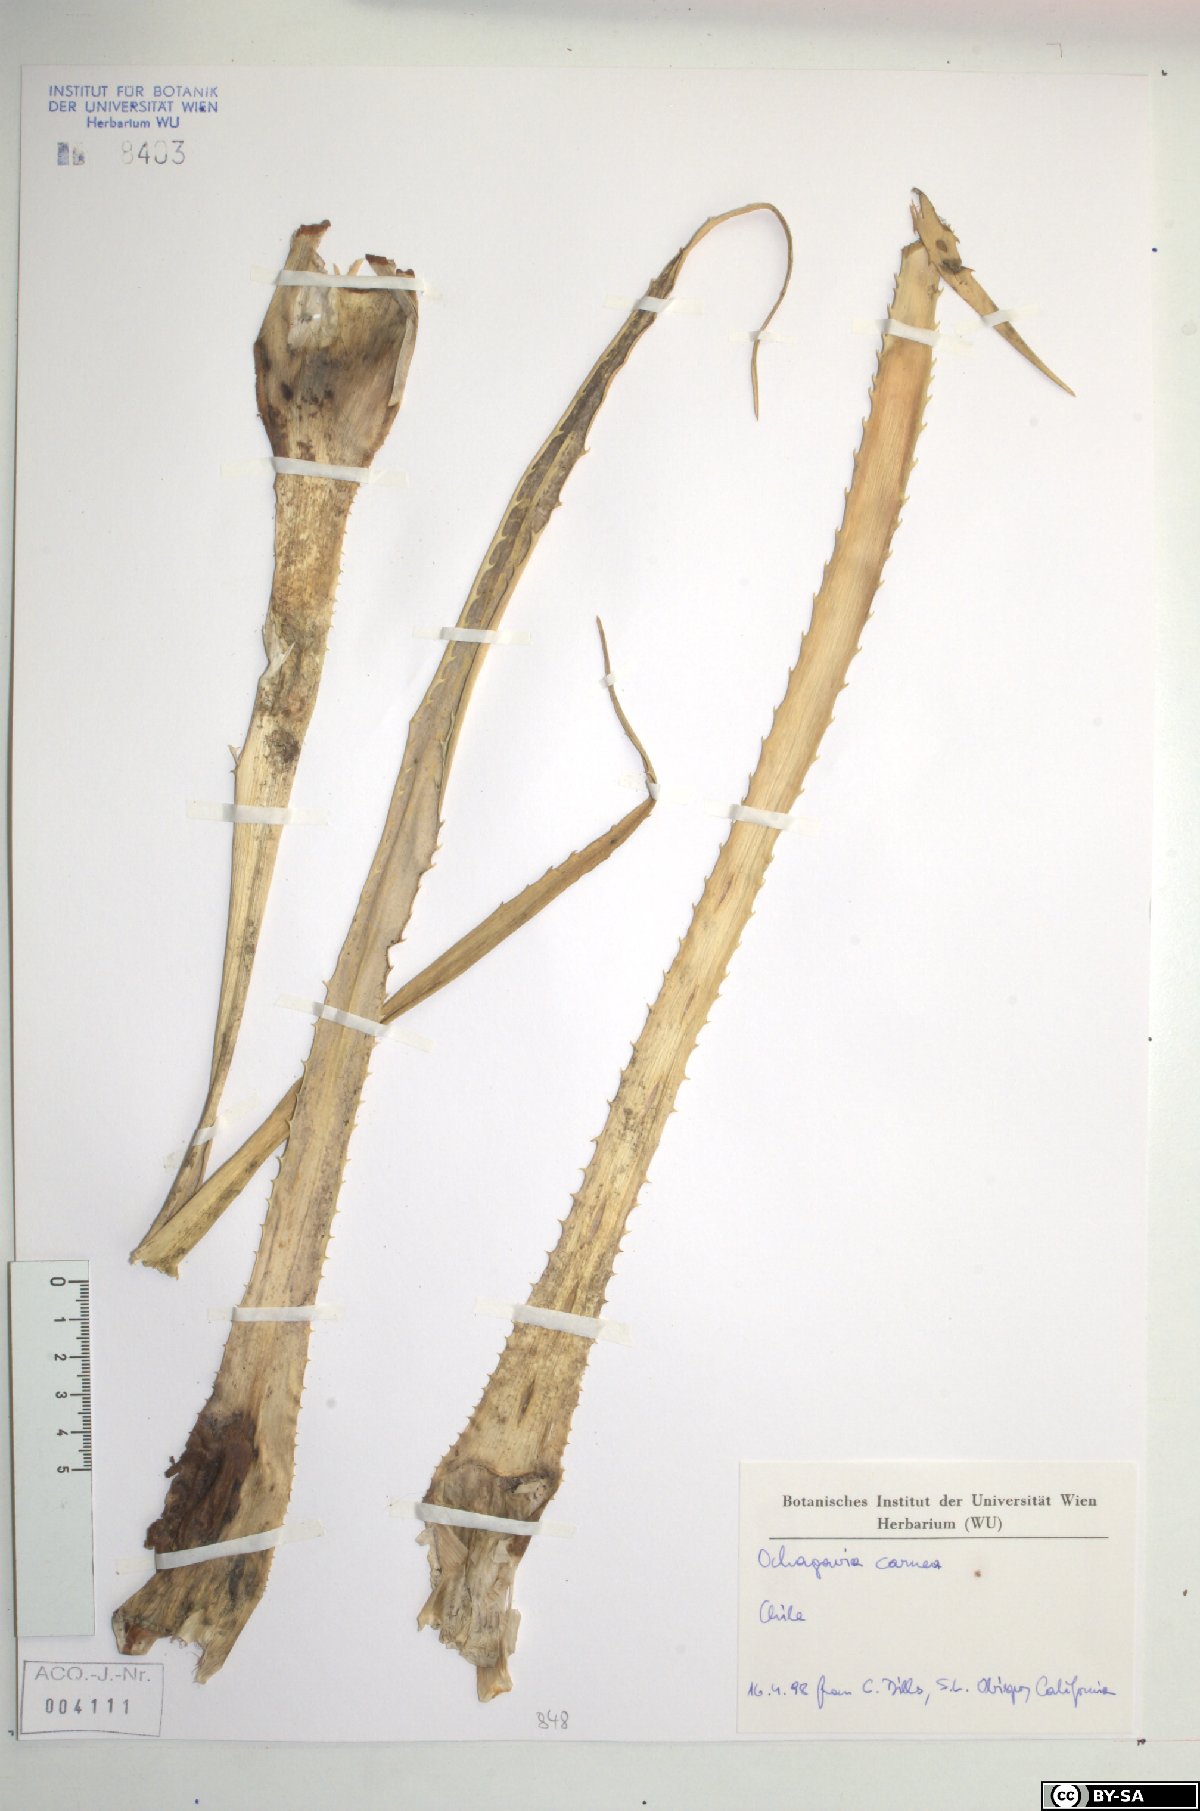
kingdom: Plantae
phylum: Tracheophyta
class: Liliopsida
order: Poales
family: Bromeliaceae
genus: Ochagavia
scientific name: Ochagavia carnea
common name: Tresco rhodostachys
